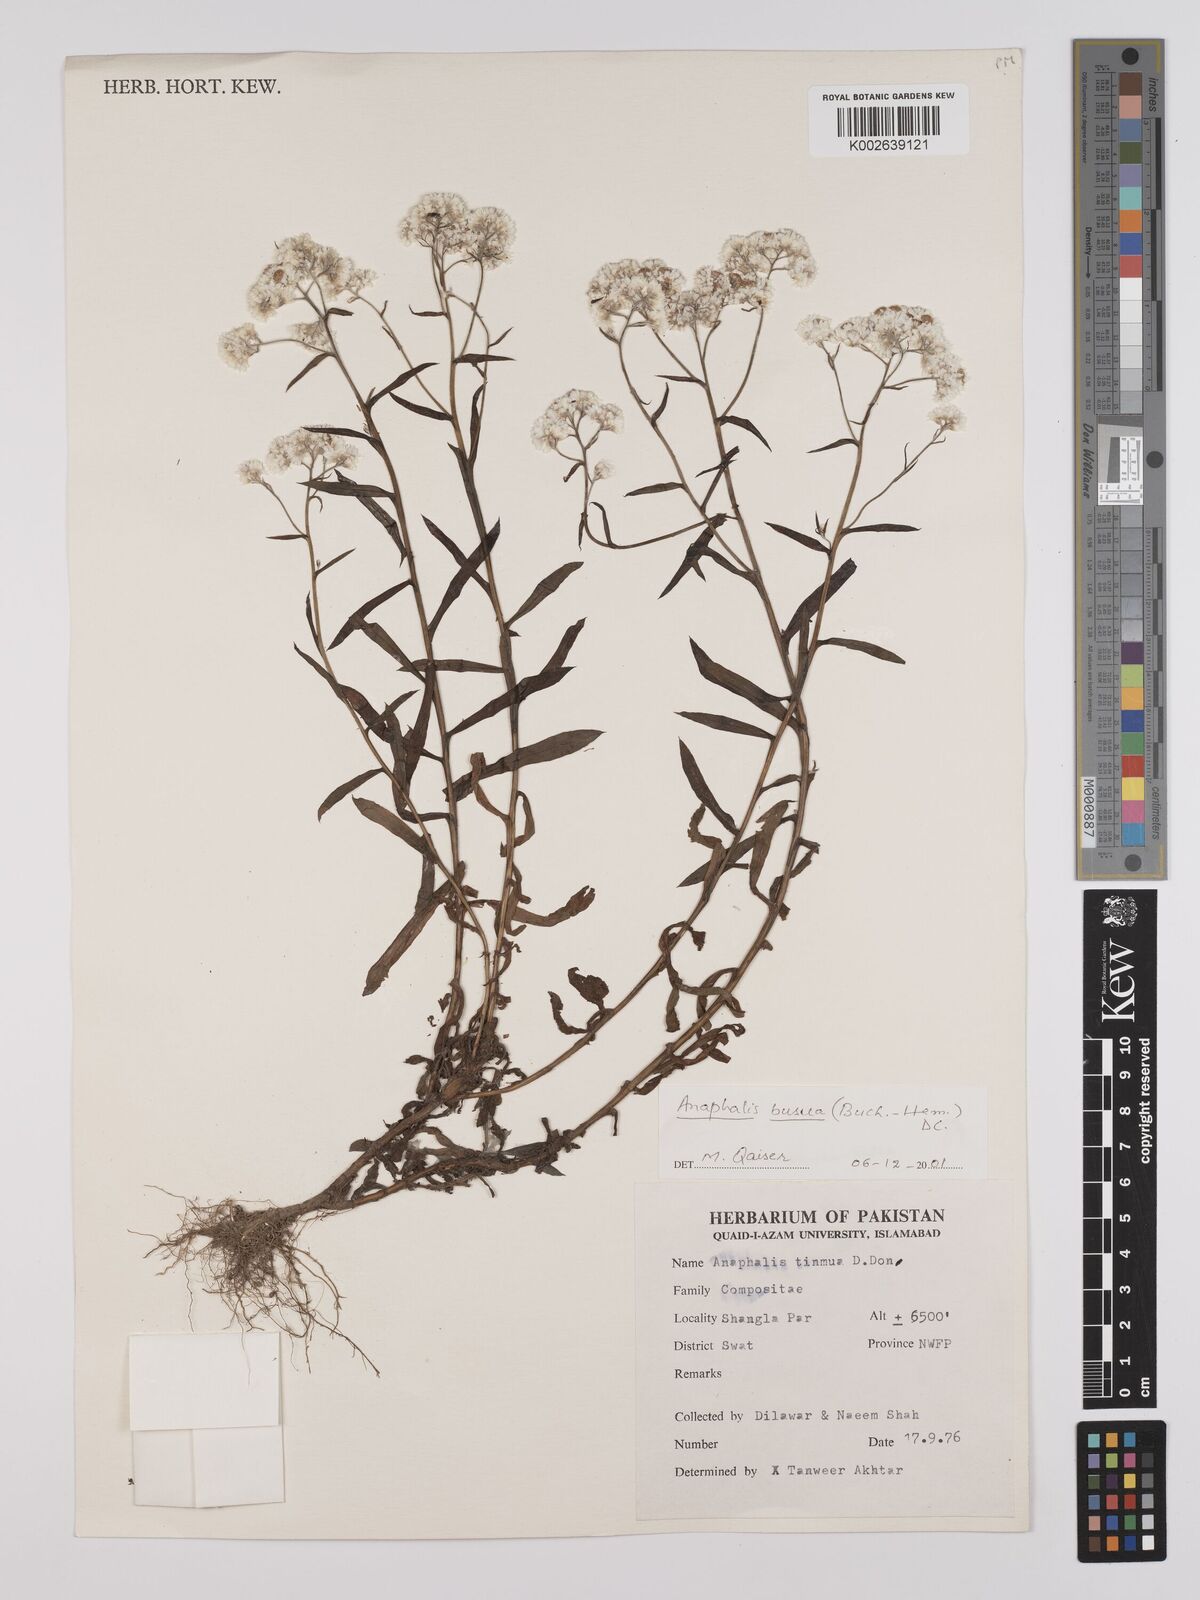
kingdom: Plantae
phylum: Tracheophyta
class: Magnoliopsida
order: Asterales
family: Asteraceae
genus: Anaphalis
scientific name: Anaphalis contorta
